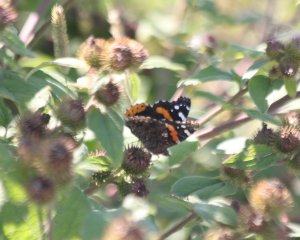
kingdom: Animalia
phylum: Arthropoda
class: Insecta
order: Lepidoptera
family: Nymphalidae
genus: Vanessa
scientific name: Vanessa atalanta
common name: Red Admiral
